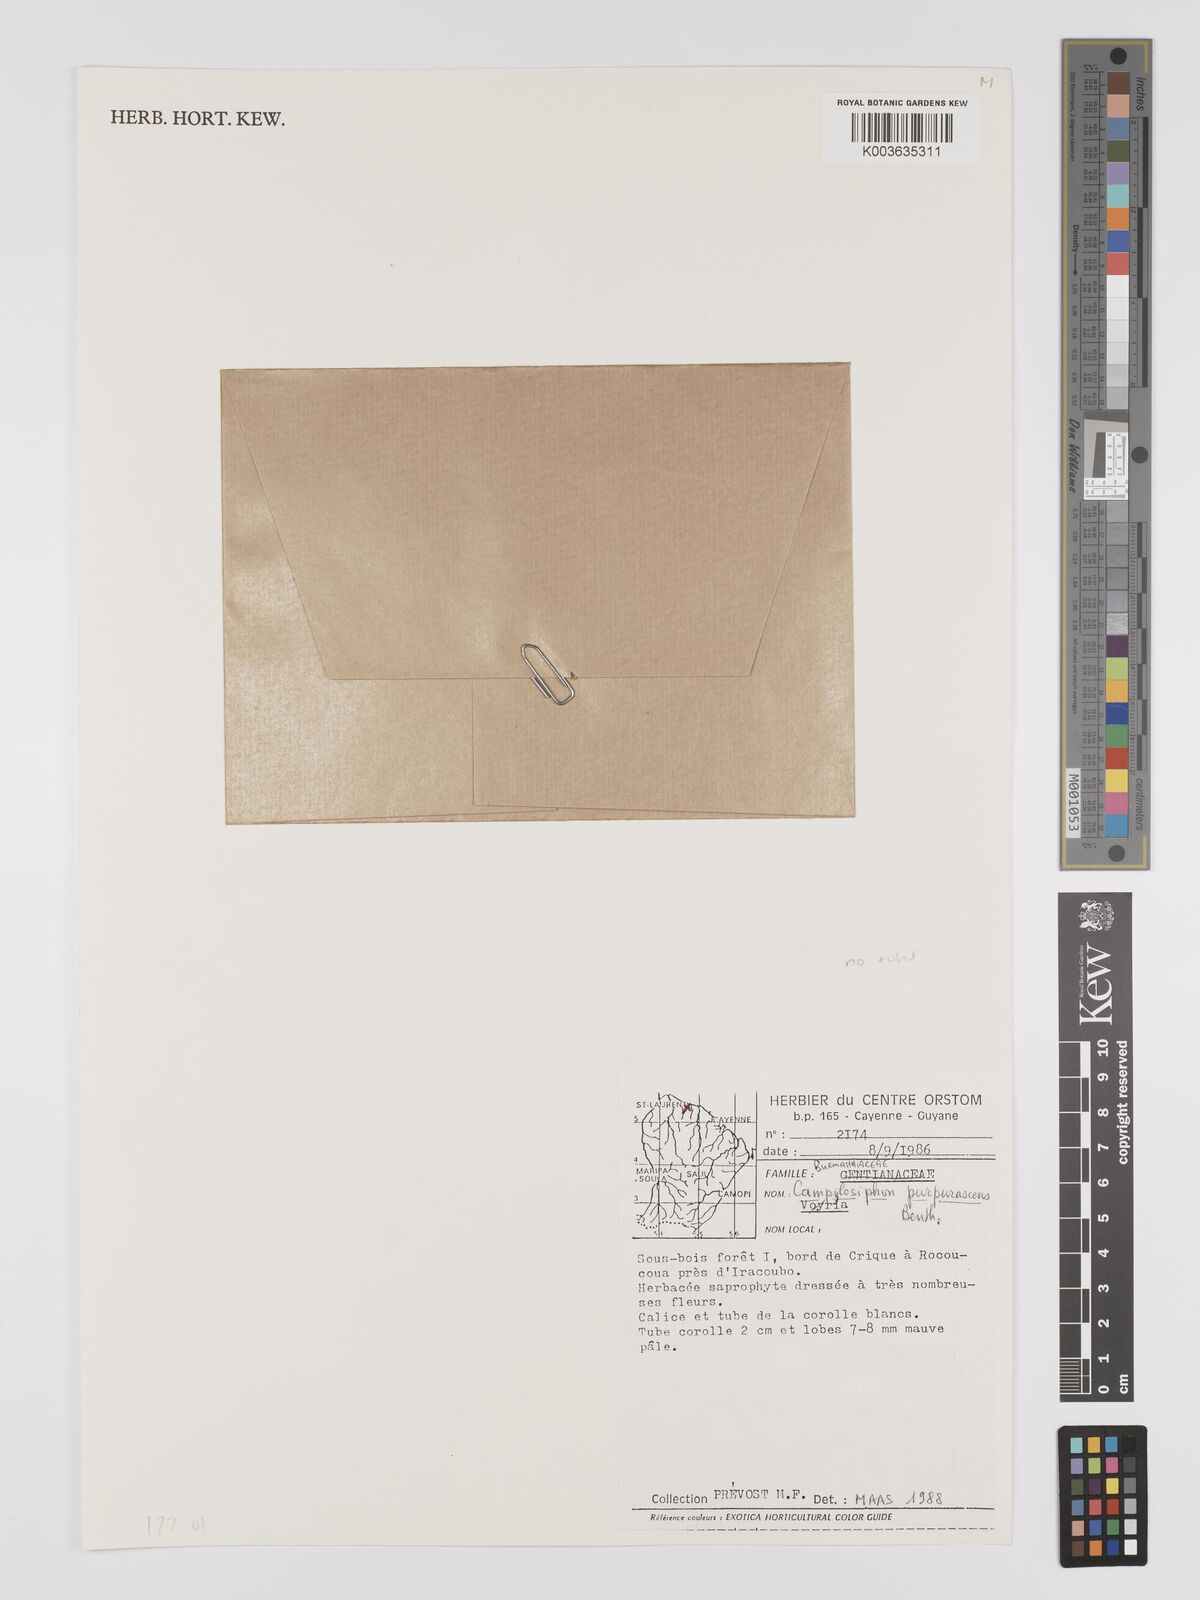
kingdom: Plantae
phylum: Tracheophyta
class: Liliopsida
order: Dioscoreales
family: Burmanniaceae
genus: Campylosiphon
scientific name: Campylosiphon purpurascens
